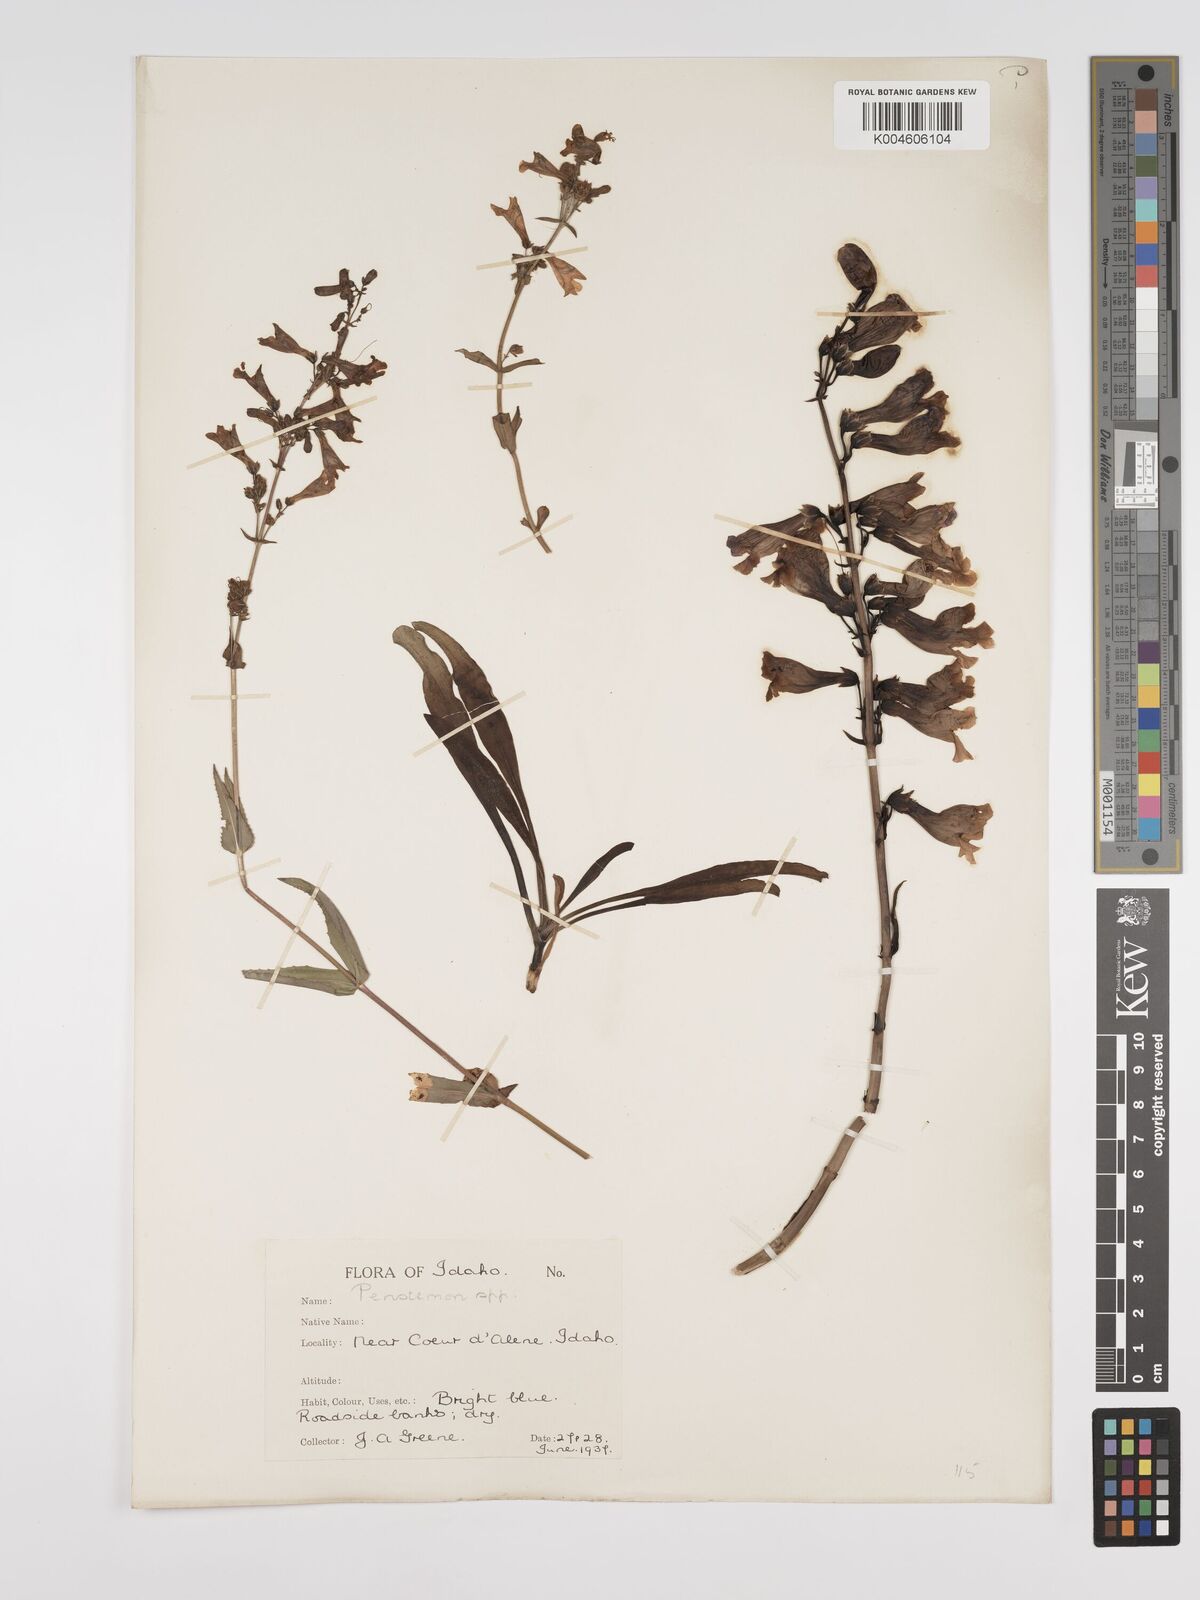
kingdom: Plantae
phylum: Tracheophyta
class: Magnoliopsida
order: Lamiales
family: Plantaginaceae
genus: Penstemon
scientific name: Penstemon
